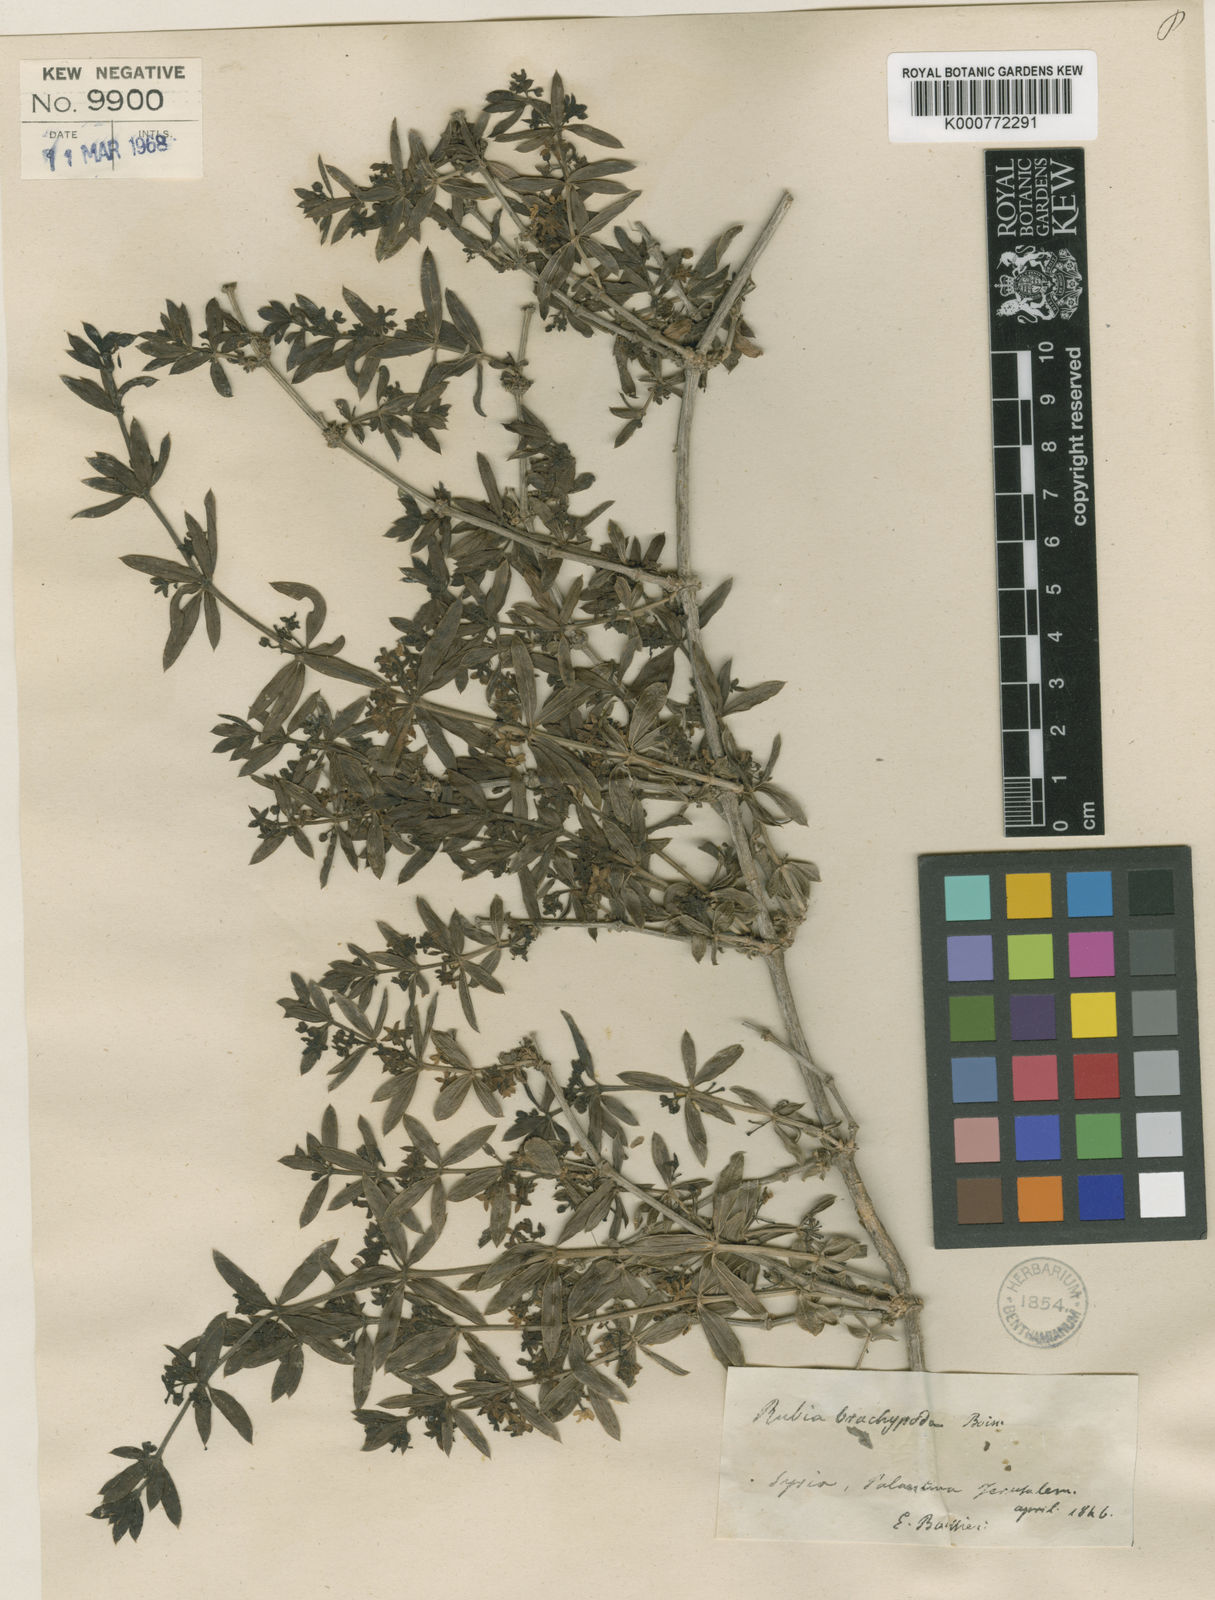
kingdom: Plantae
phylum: Tracheophyta
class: Magnoliopsida
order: Gentianales
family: Rubiaceae
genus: Rubia
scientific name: Rubia tenuifolia
